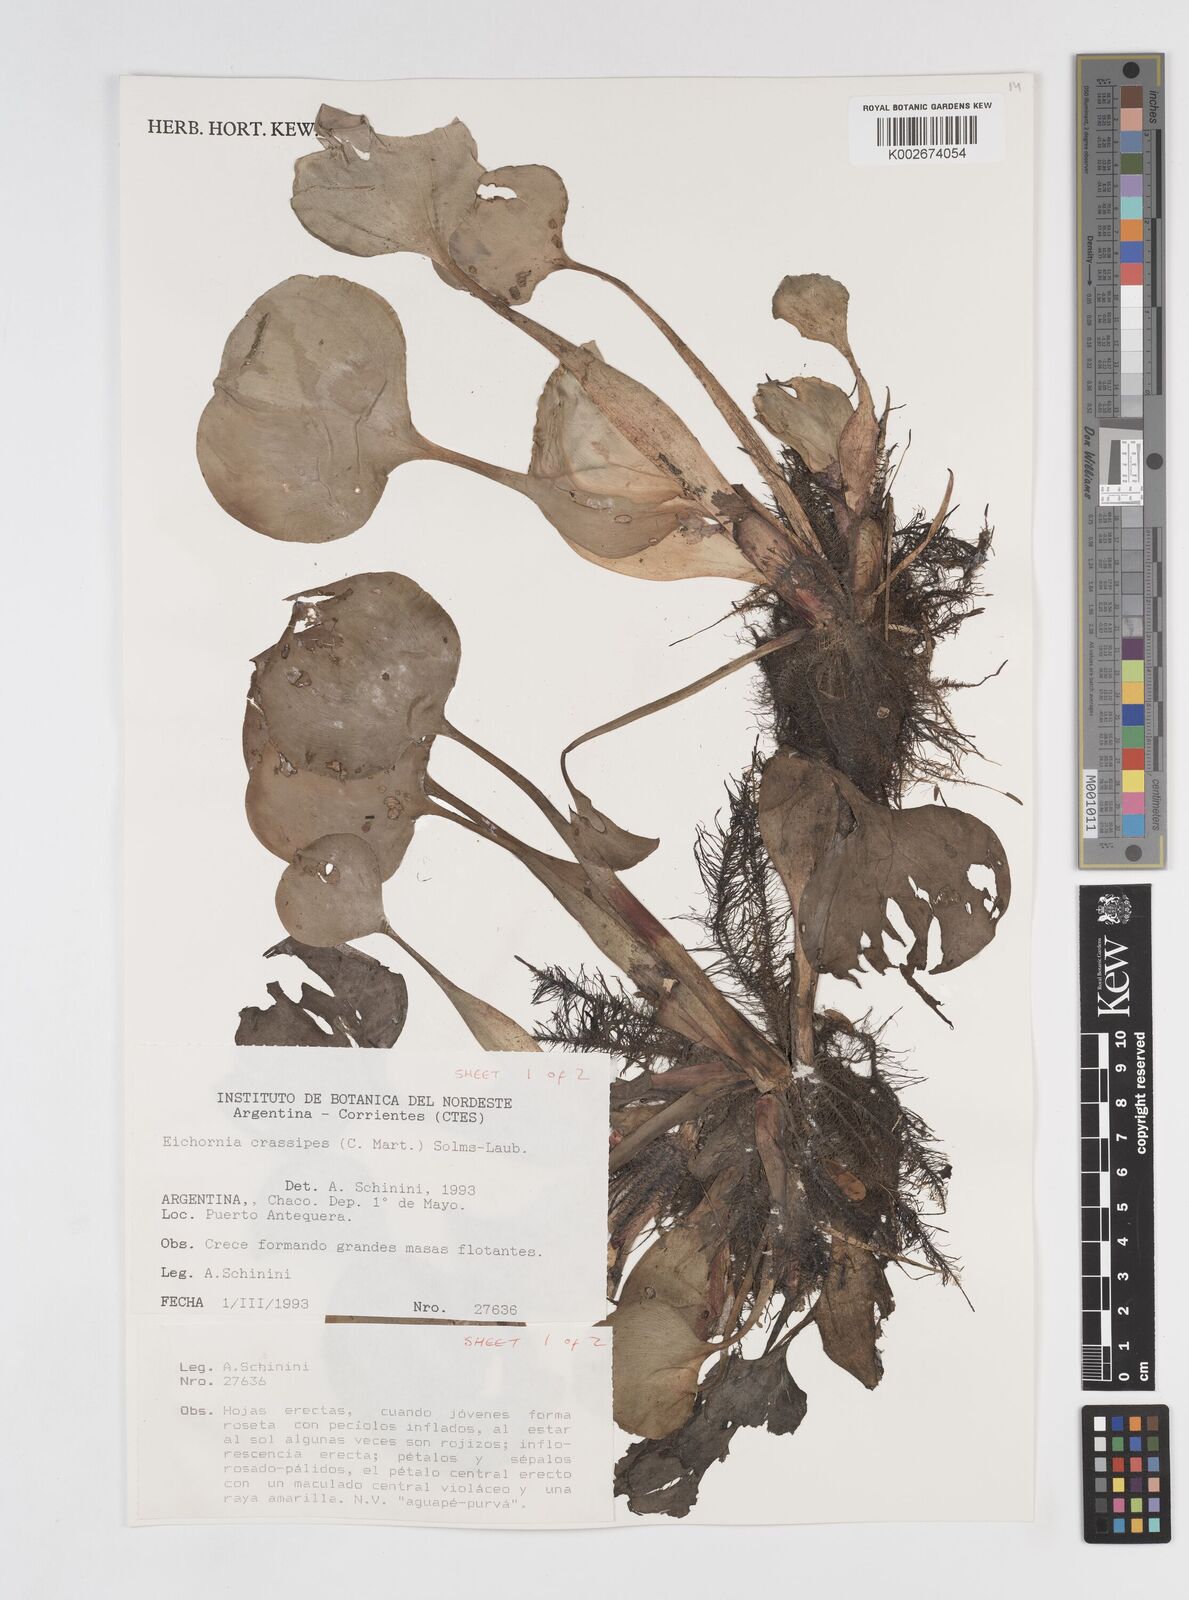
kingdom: Plantae
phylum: Tracheophyta
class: Liliopsida
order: Commelinales
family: Pontederiaceae
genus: Pontederia
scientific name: Pontederia crassipes
